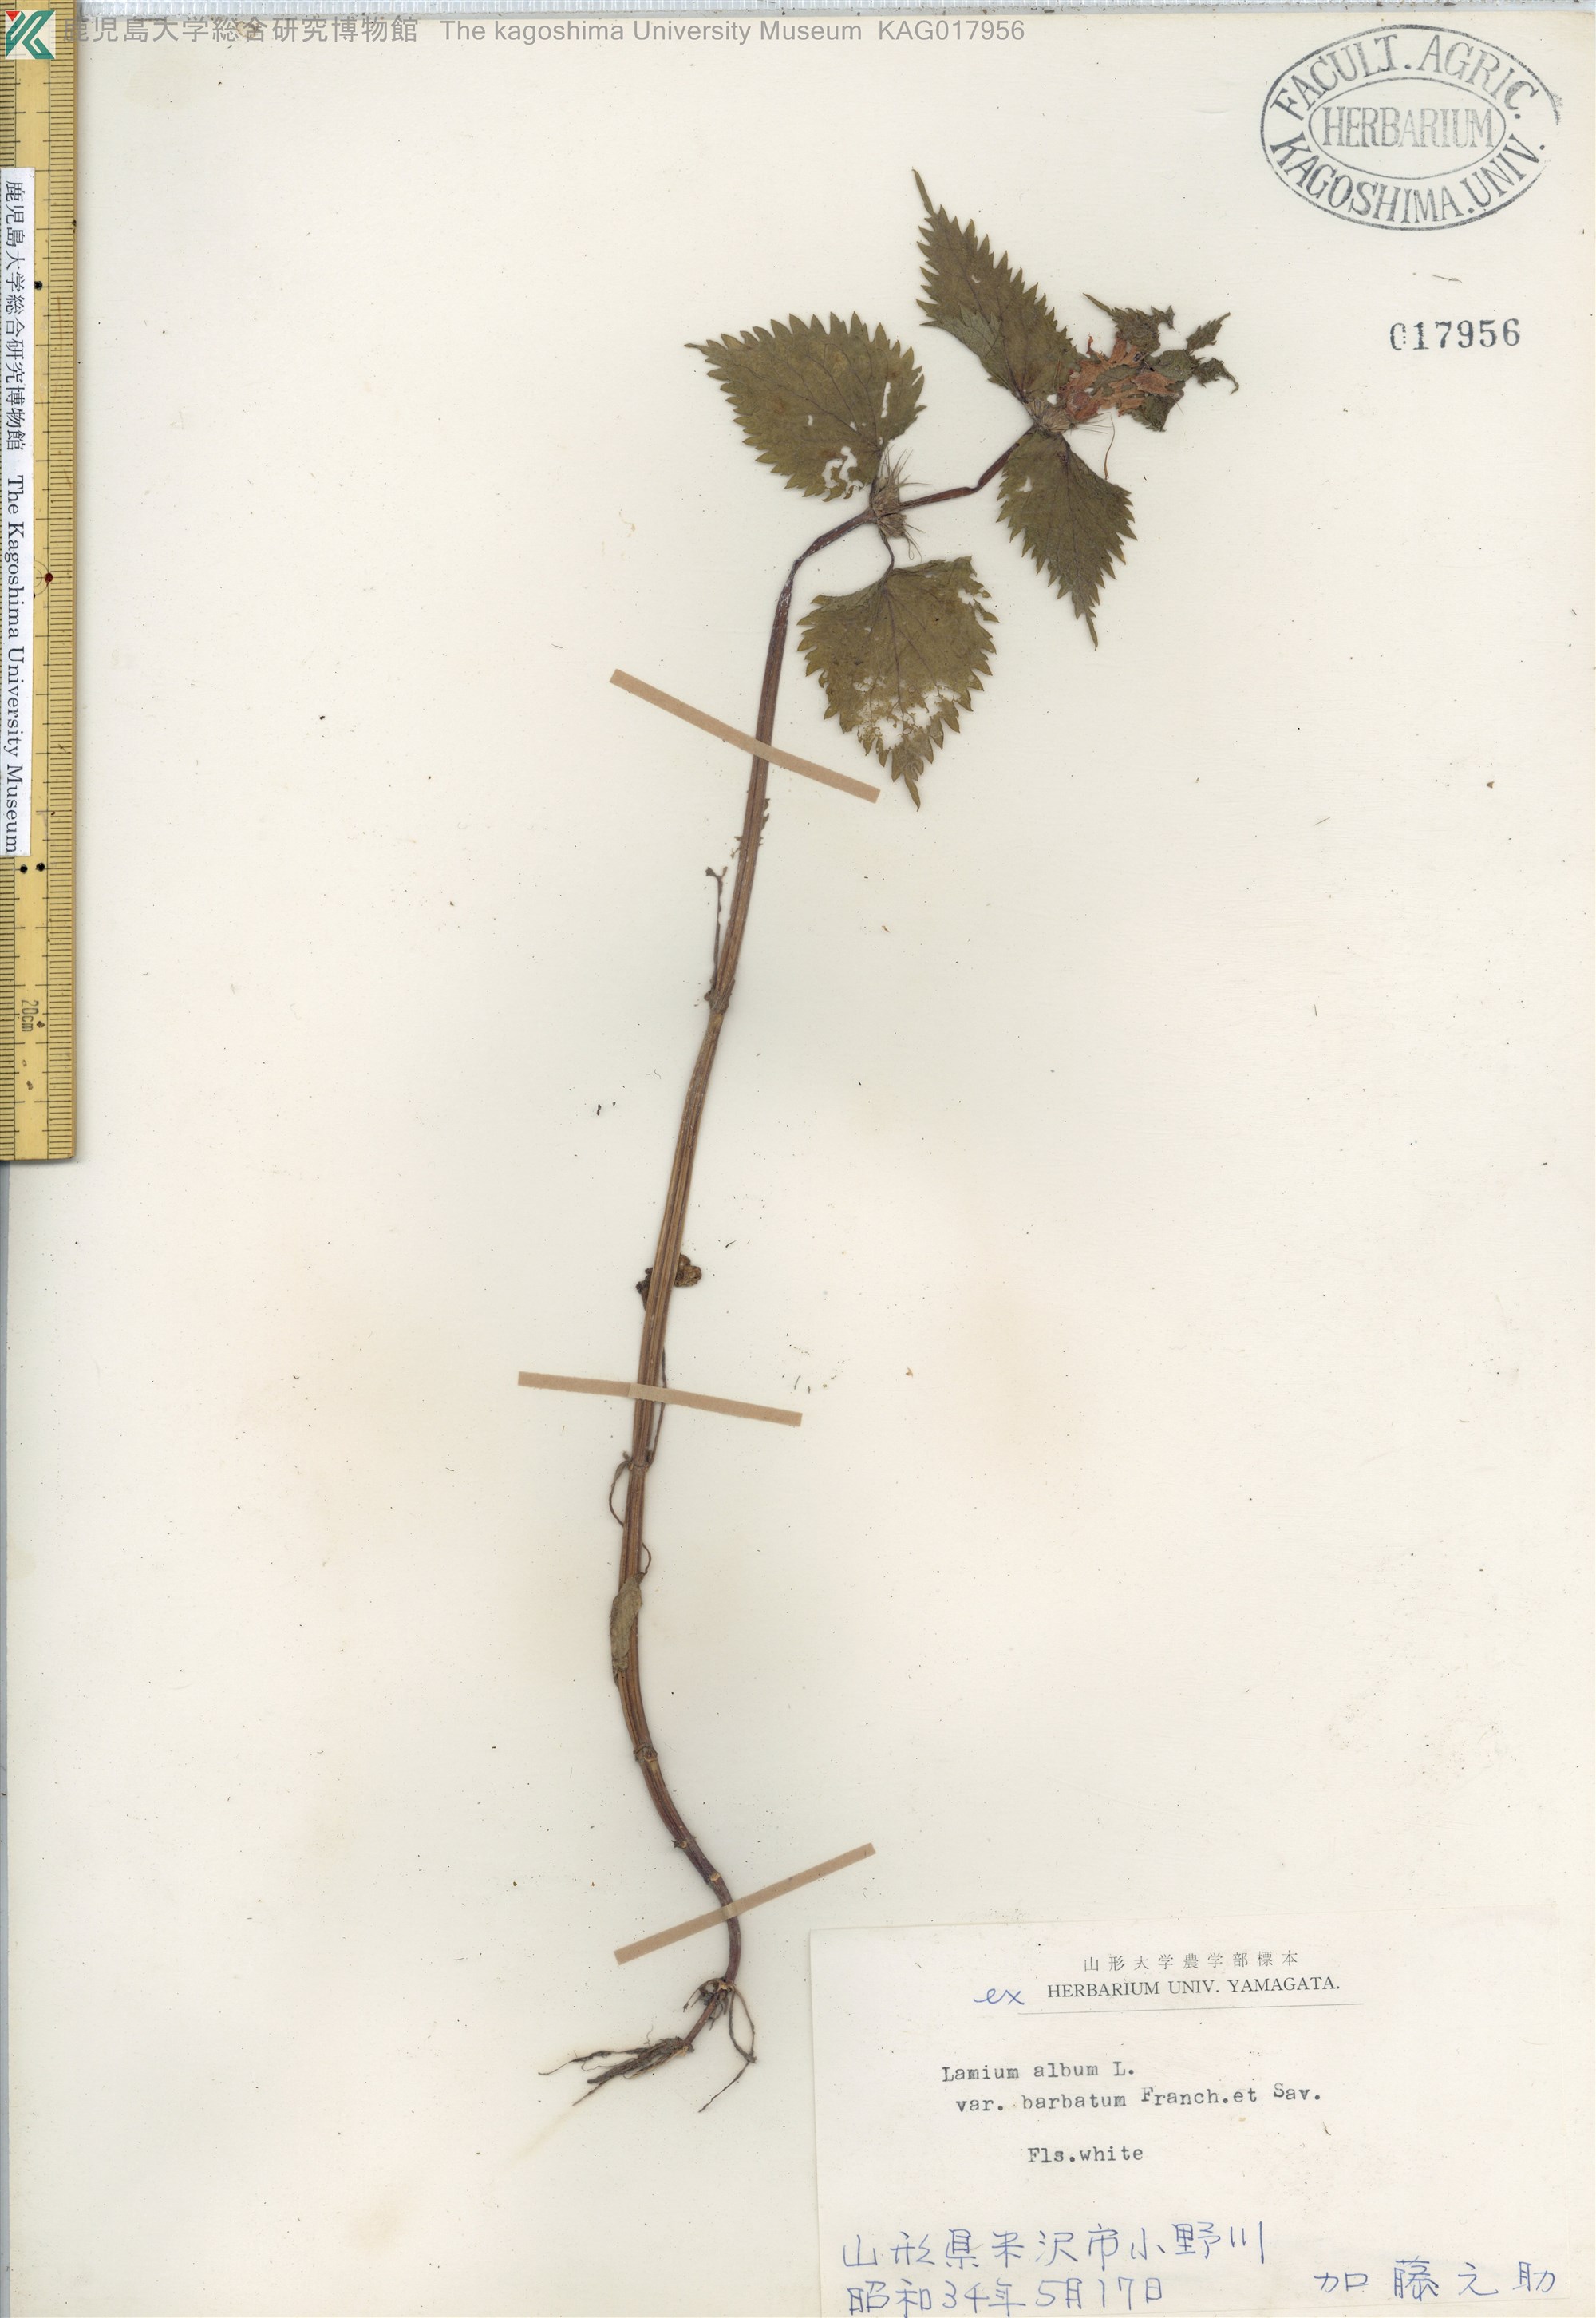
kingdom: Plantae
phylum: Tracheophyta
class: Magnoliopsida
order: Lamiales
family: Lamiaceae
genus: Lamium
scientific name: Lamium album
